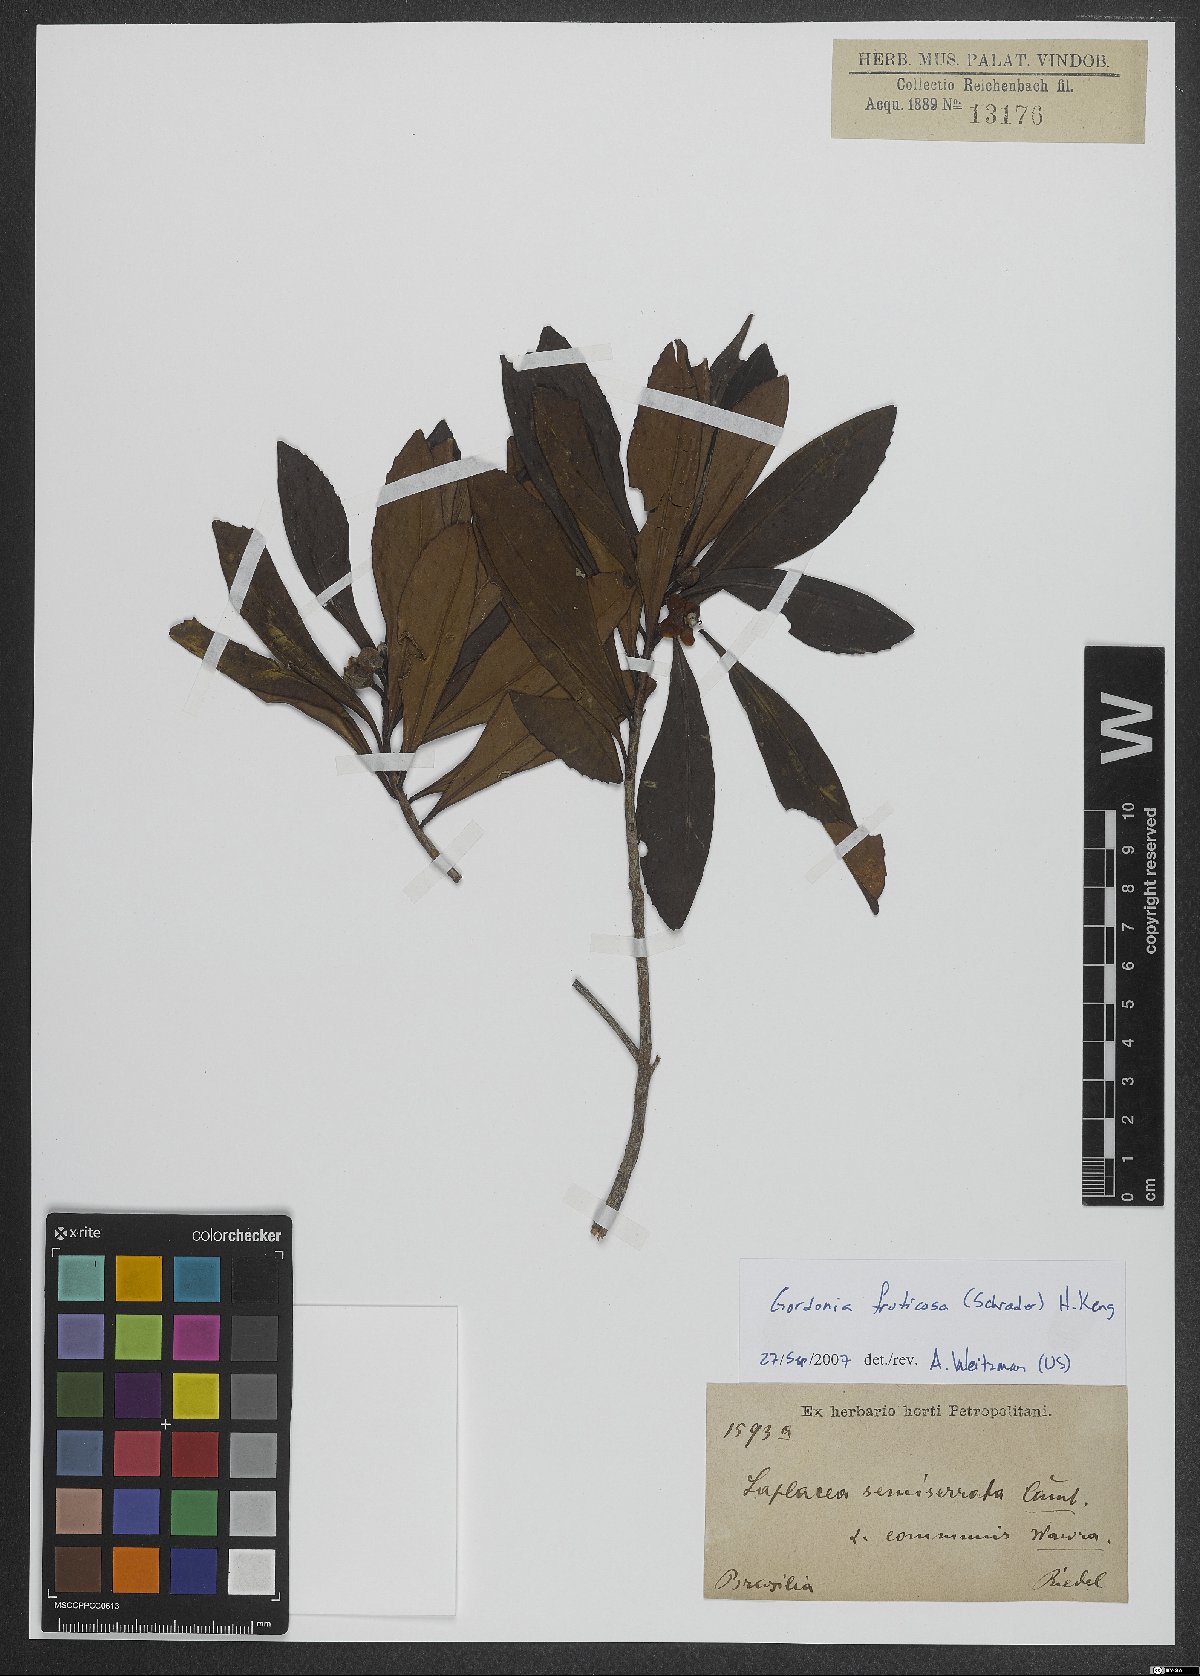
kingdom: Plantae
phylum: Tracheophyta
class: Magnoliopsida
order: Ericales
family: Theaceae
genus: Gordonia
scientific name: Gordonia fruticosa
